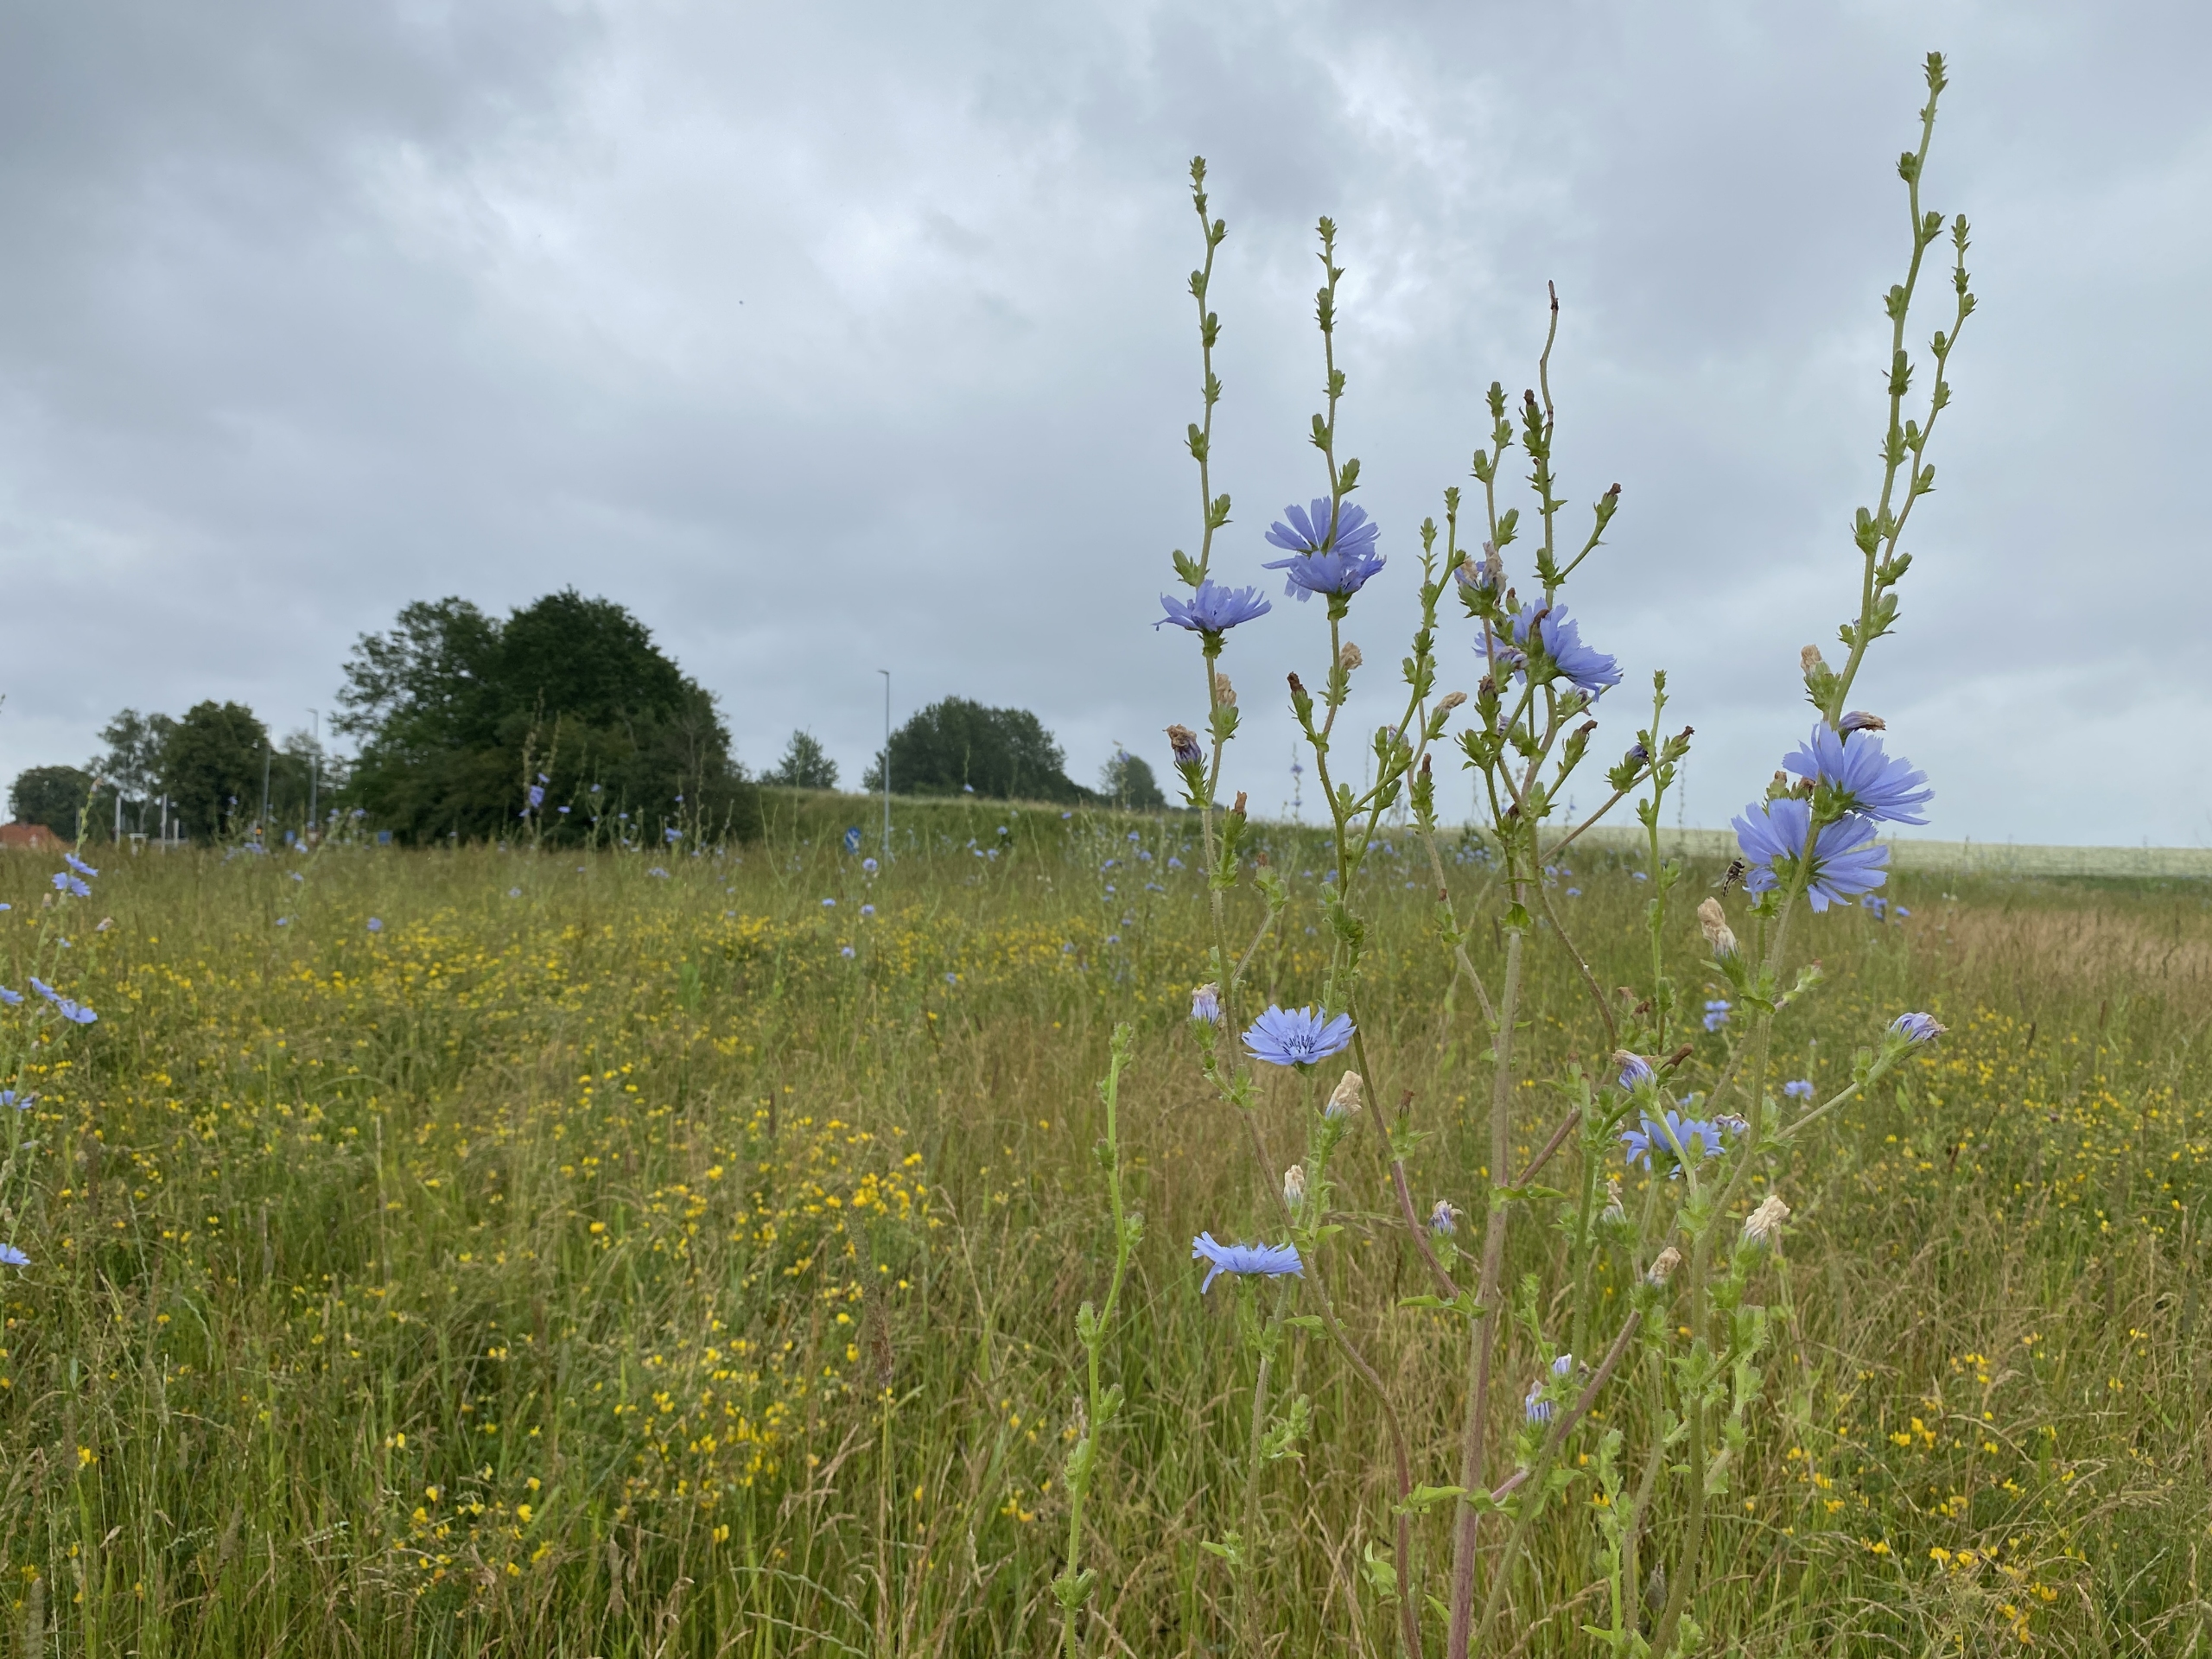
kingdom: Plantae
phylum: Tracheophyta
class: Magnoliopsida
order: Asterales
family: Asteraceae
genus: Cichorium
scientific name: Cichorium intybus
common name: Cikorie
